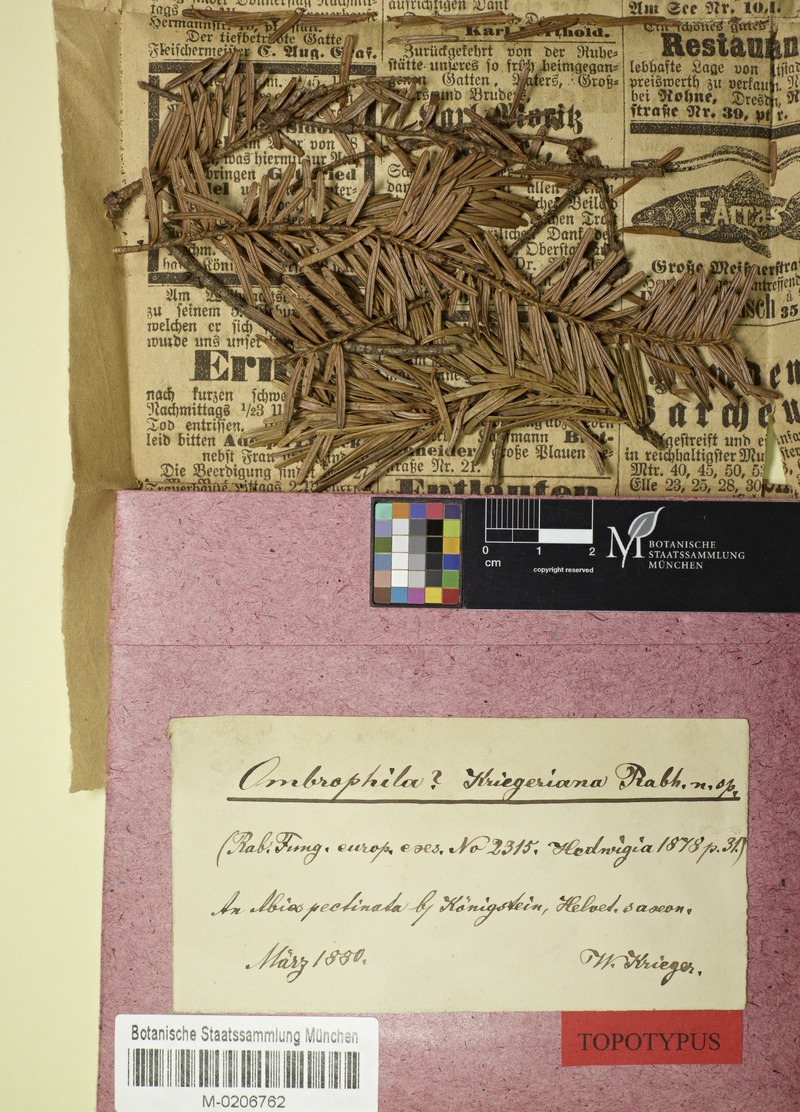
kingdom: Fungi
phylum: Ascomycota
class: Leotiomycetes
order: Helotiales
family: Rutstroemiaceae
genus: Rutstroemia
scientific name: Rutstroemia elatina
